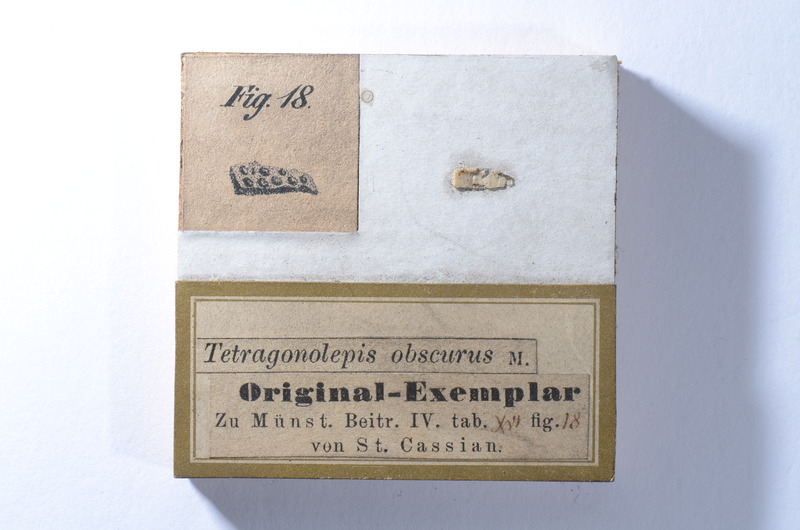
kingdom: Animalia
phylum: Chordata
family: Dapediidae
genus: Dapedium
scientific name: Dapedium
